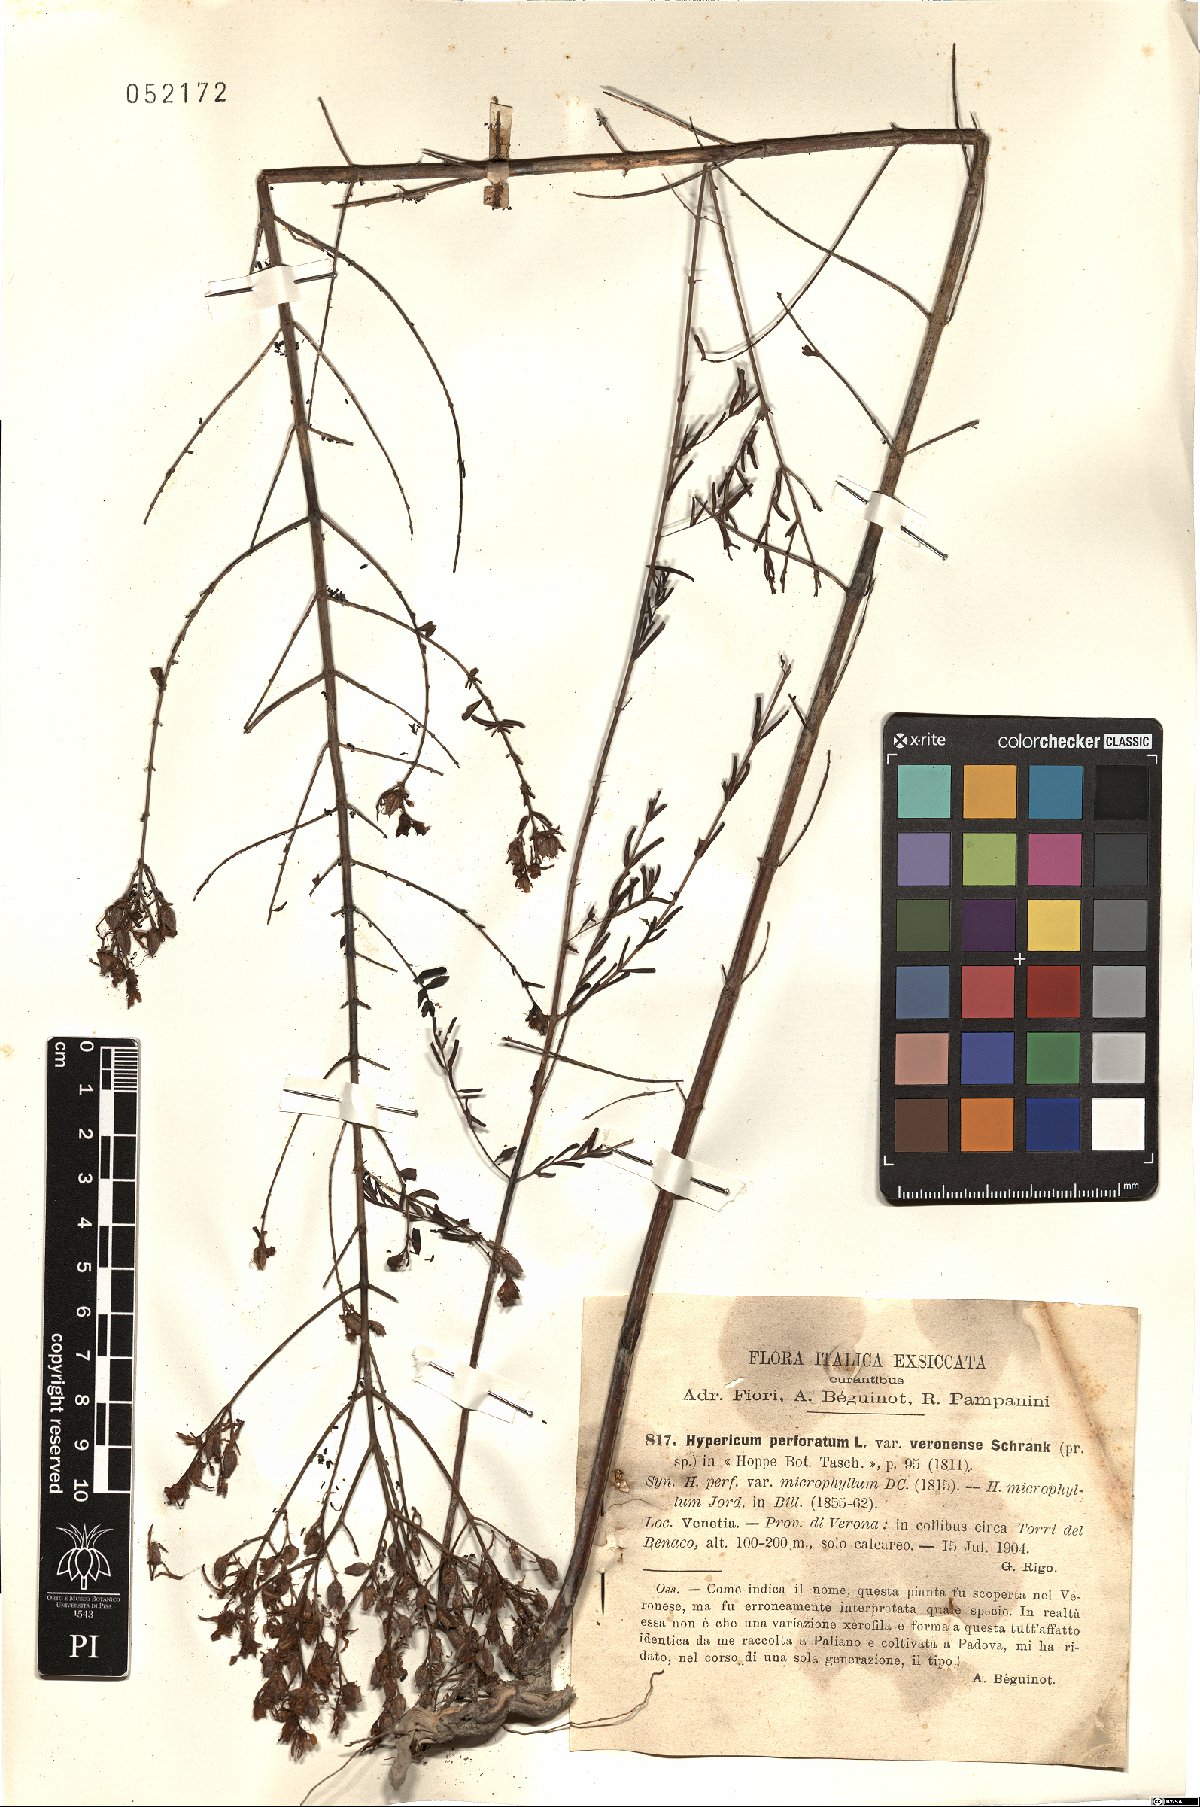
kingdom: Plantae
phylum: Tracheophyta
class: Magnoliopsida
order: Malpighiales
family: Hypericaceae
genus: Hypericum
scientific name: Hypericum perforatum
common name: Common st. johnswort
